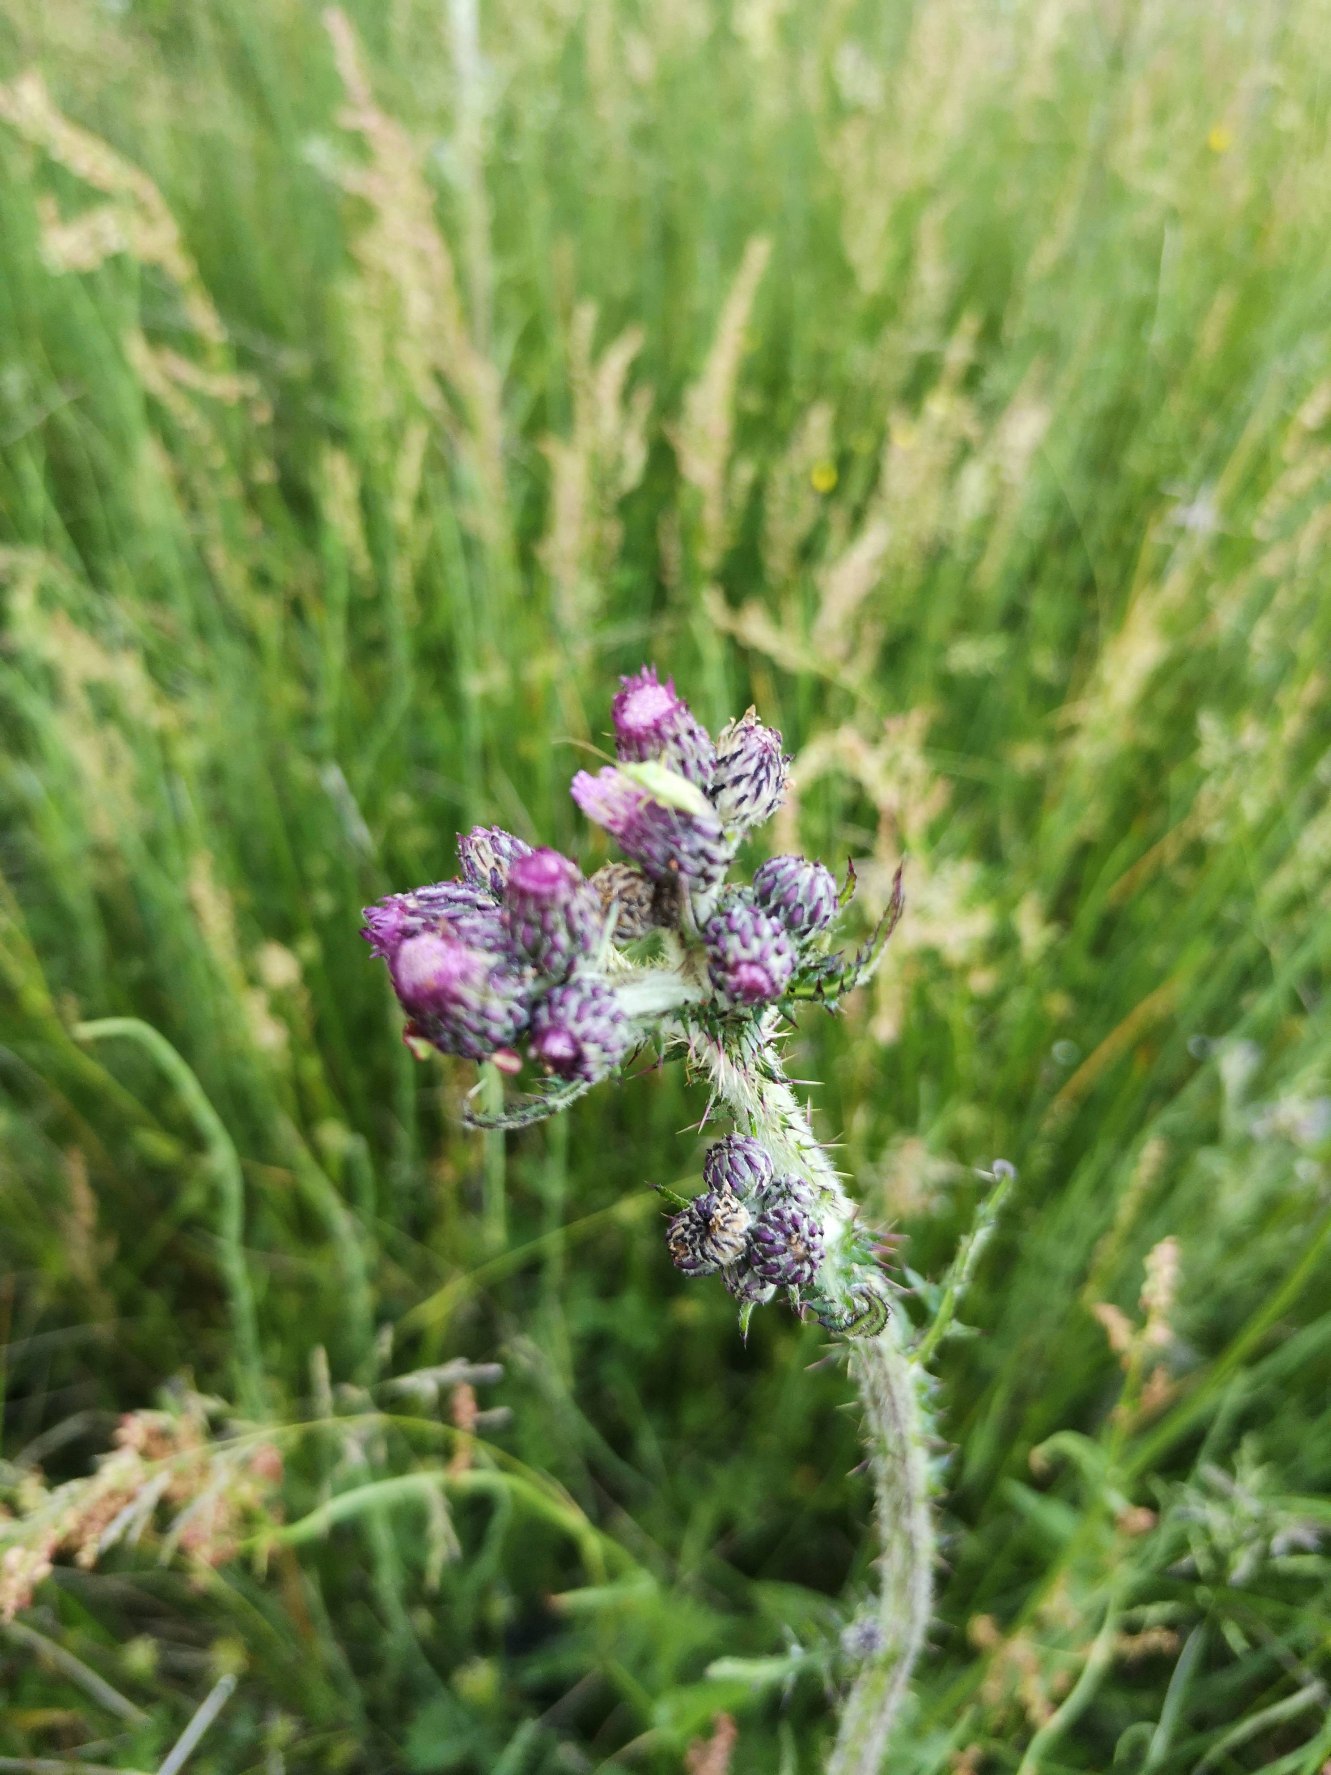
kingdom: Plantae
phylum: Tracheophyta
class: Magnoliopsida
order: Asterales
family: Asteraceae
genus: Cirsium
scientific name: Cirsium palustre
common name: Kær-tidsel
